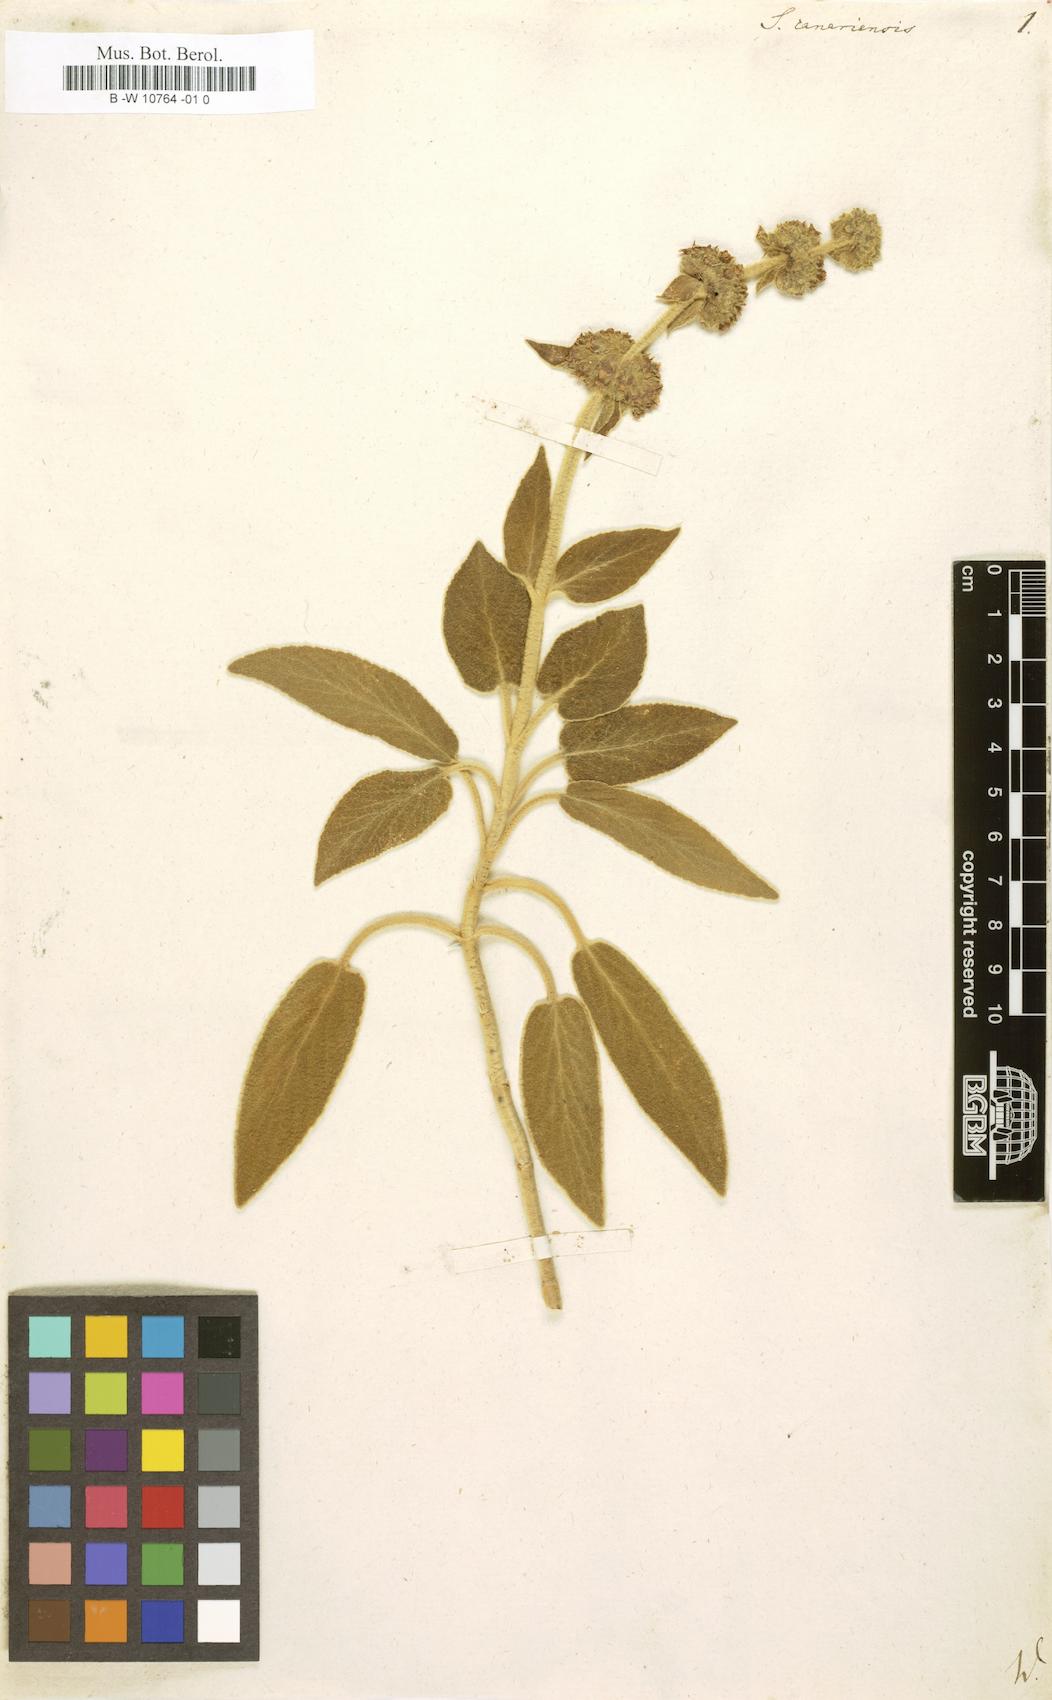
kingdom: Plantae
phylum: Tracheophyta
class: Magnoliopsida
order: Lamiales
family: Lamiaceae
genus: Sideritis
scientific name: Sideritis canariensis
